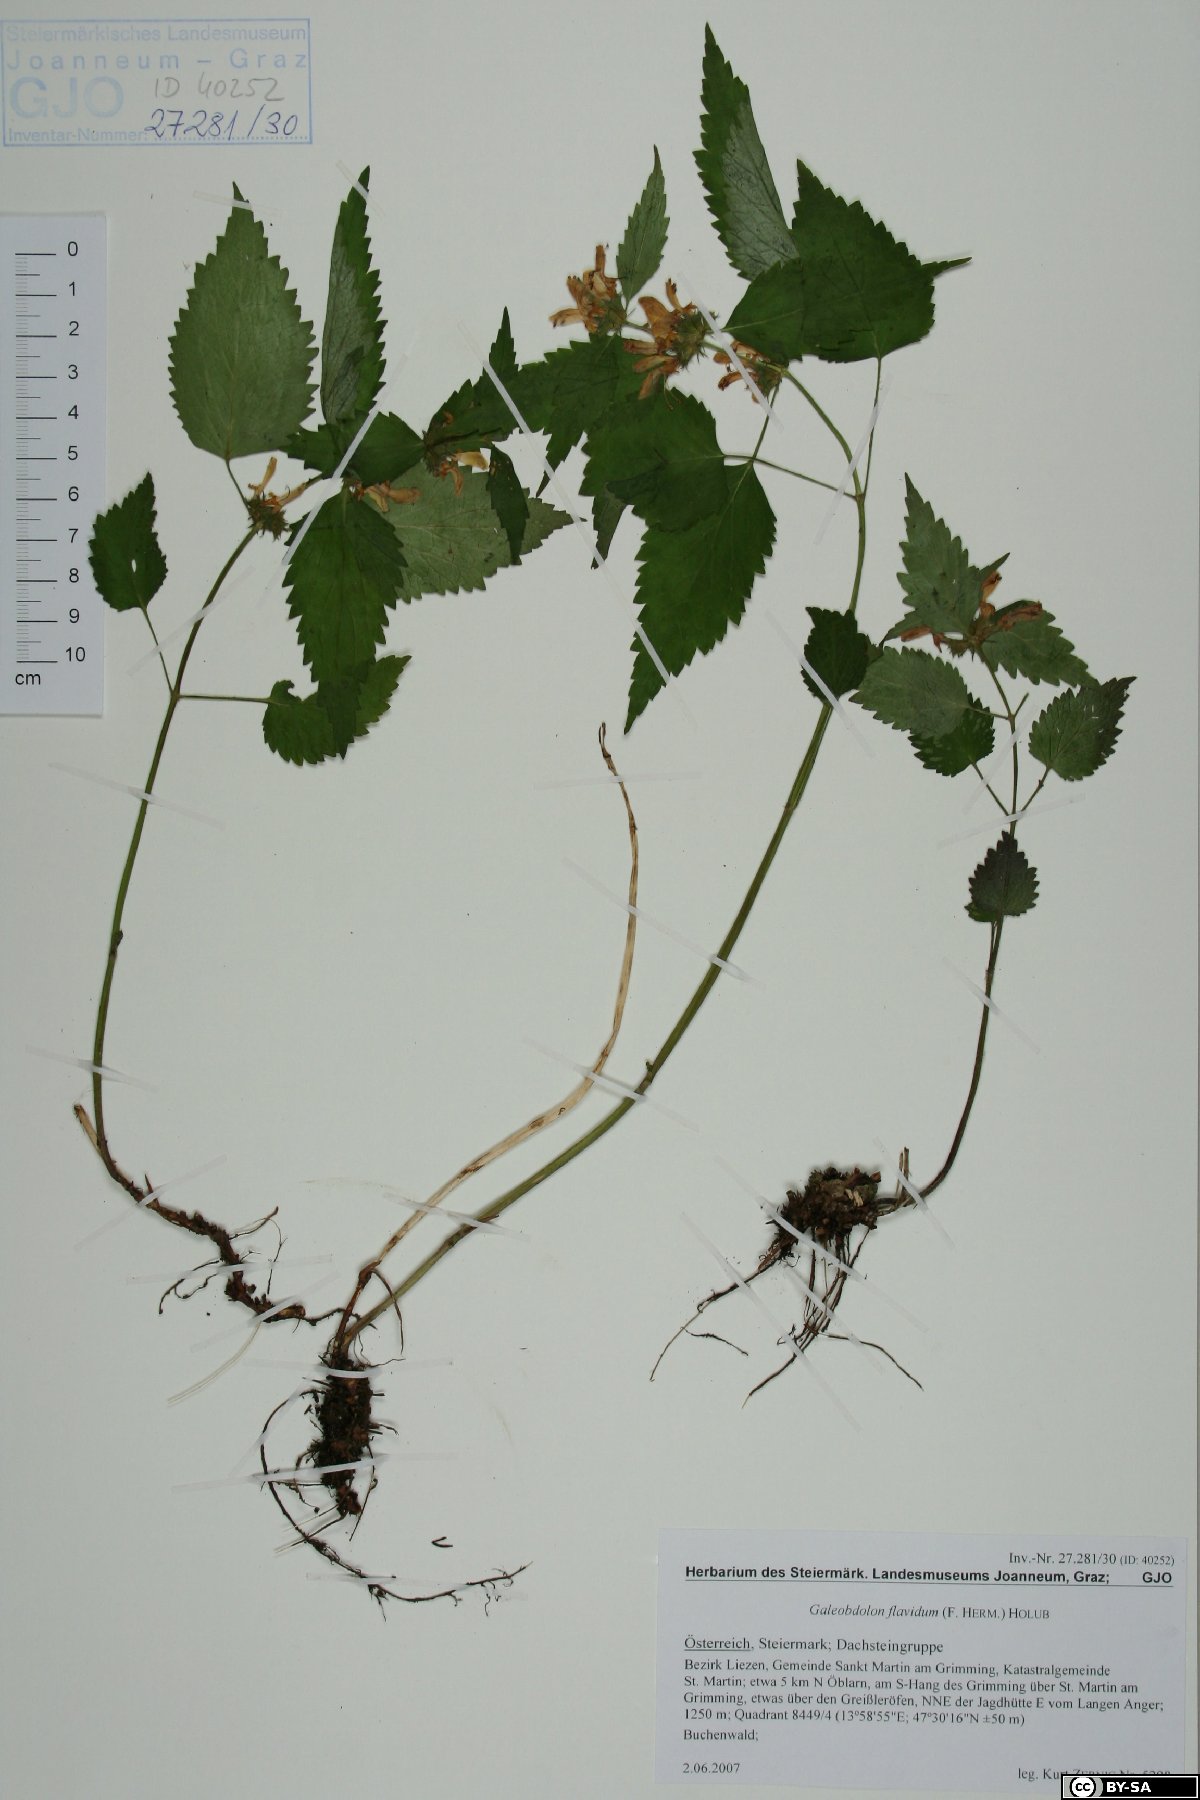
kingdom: Plantae
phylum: Tracheophyta
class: Magnoliopsida
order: Lamiales
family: Lamiaceae
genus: Lamium
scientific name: Lamium galeobdolon
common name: Yellow archangel
